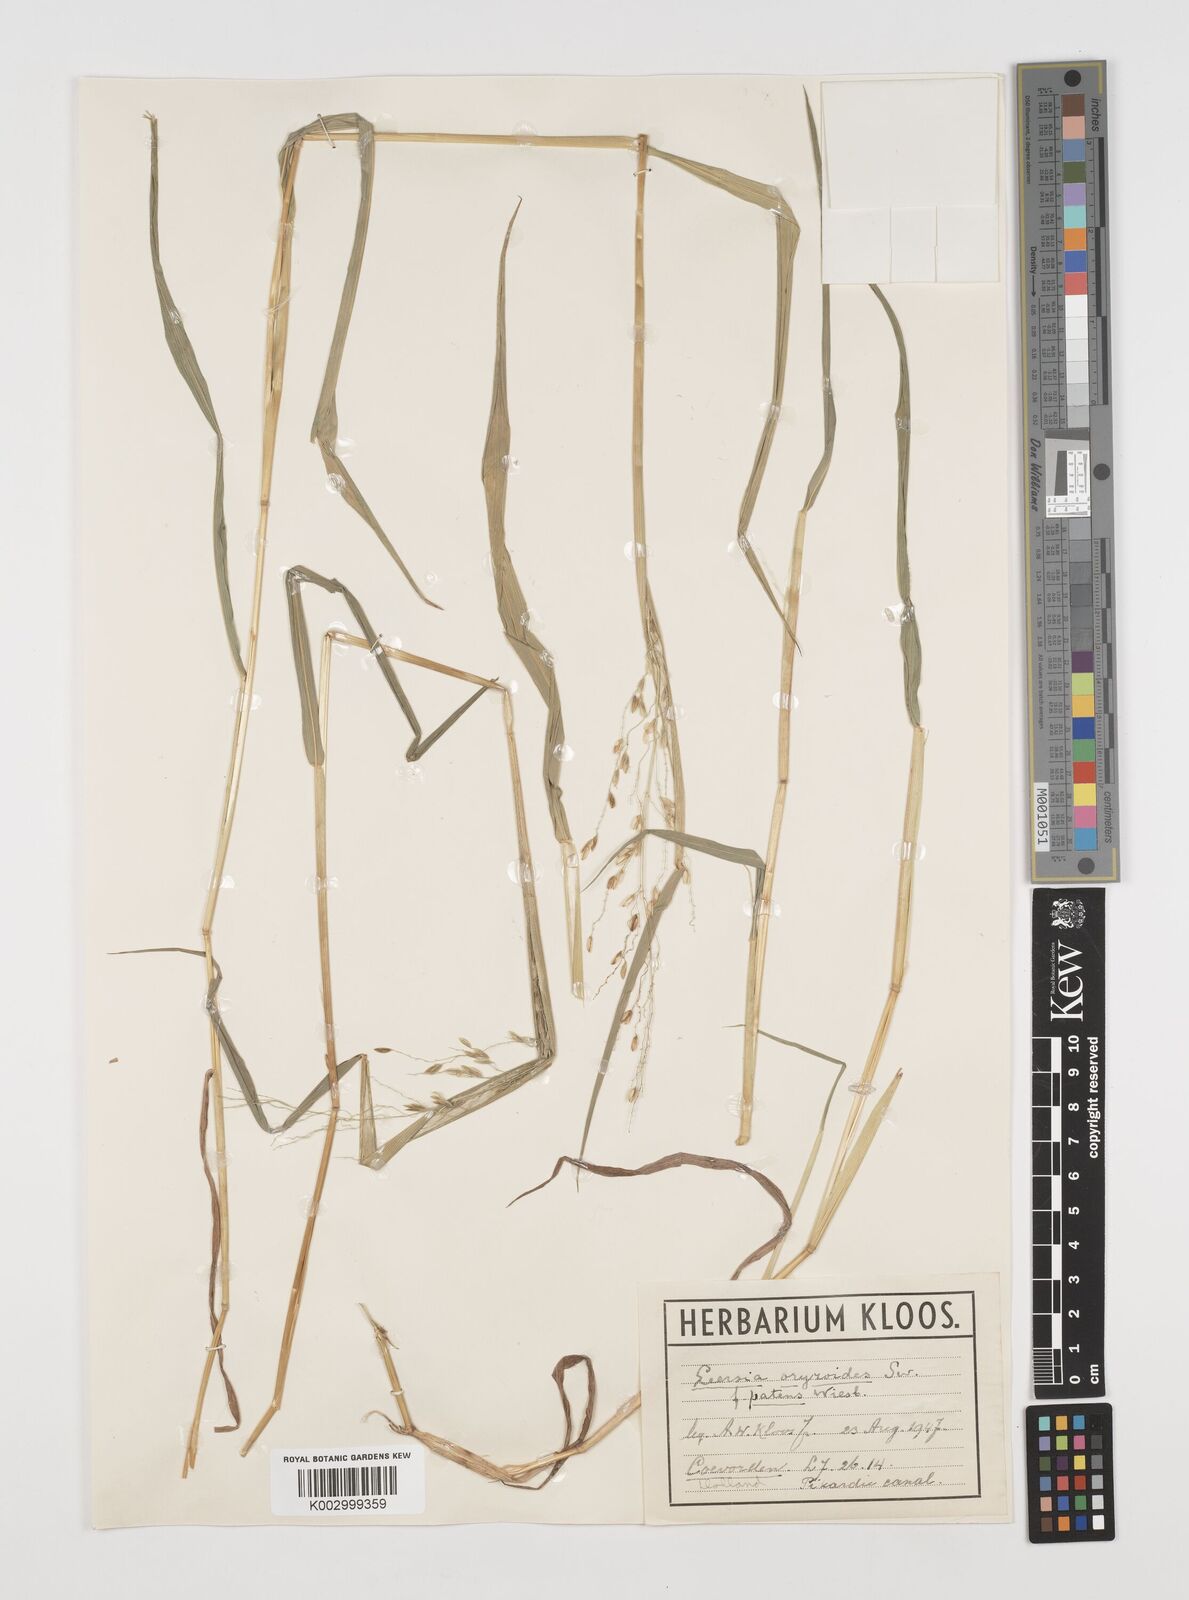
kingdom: Plantae
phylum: Tracheophyta
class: Liliopsida
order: Poales
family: Poaceae
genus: Leersia
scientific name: Leersia oryzoides
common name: Cut-grass
